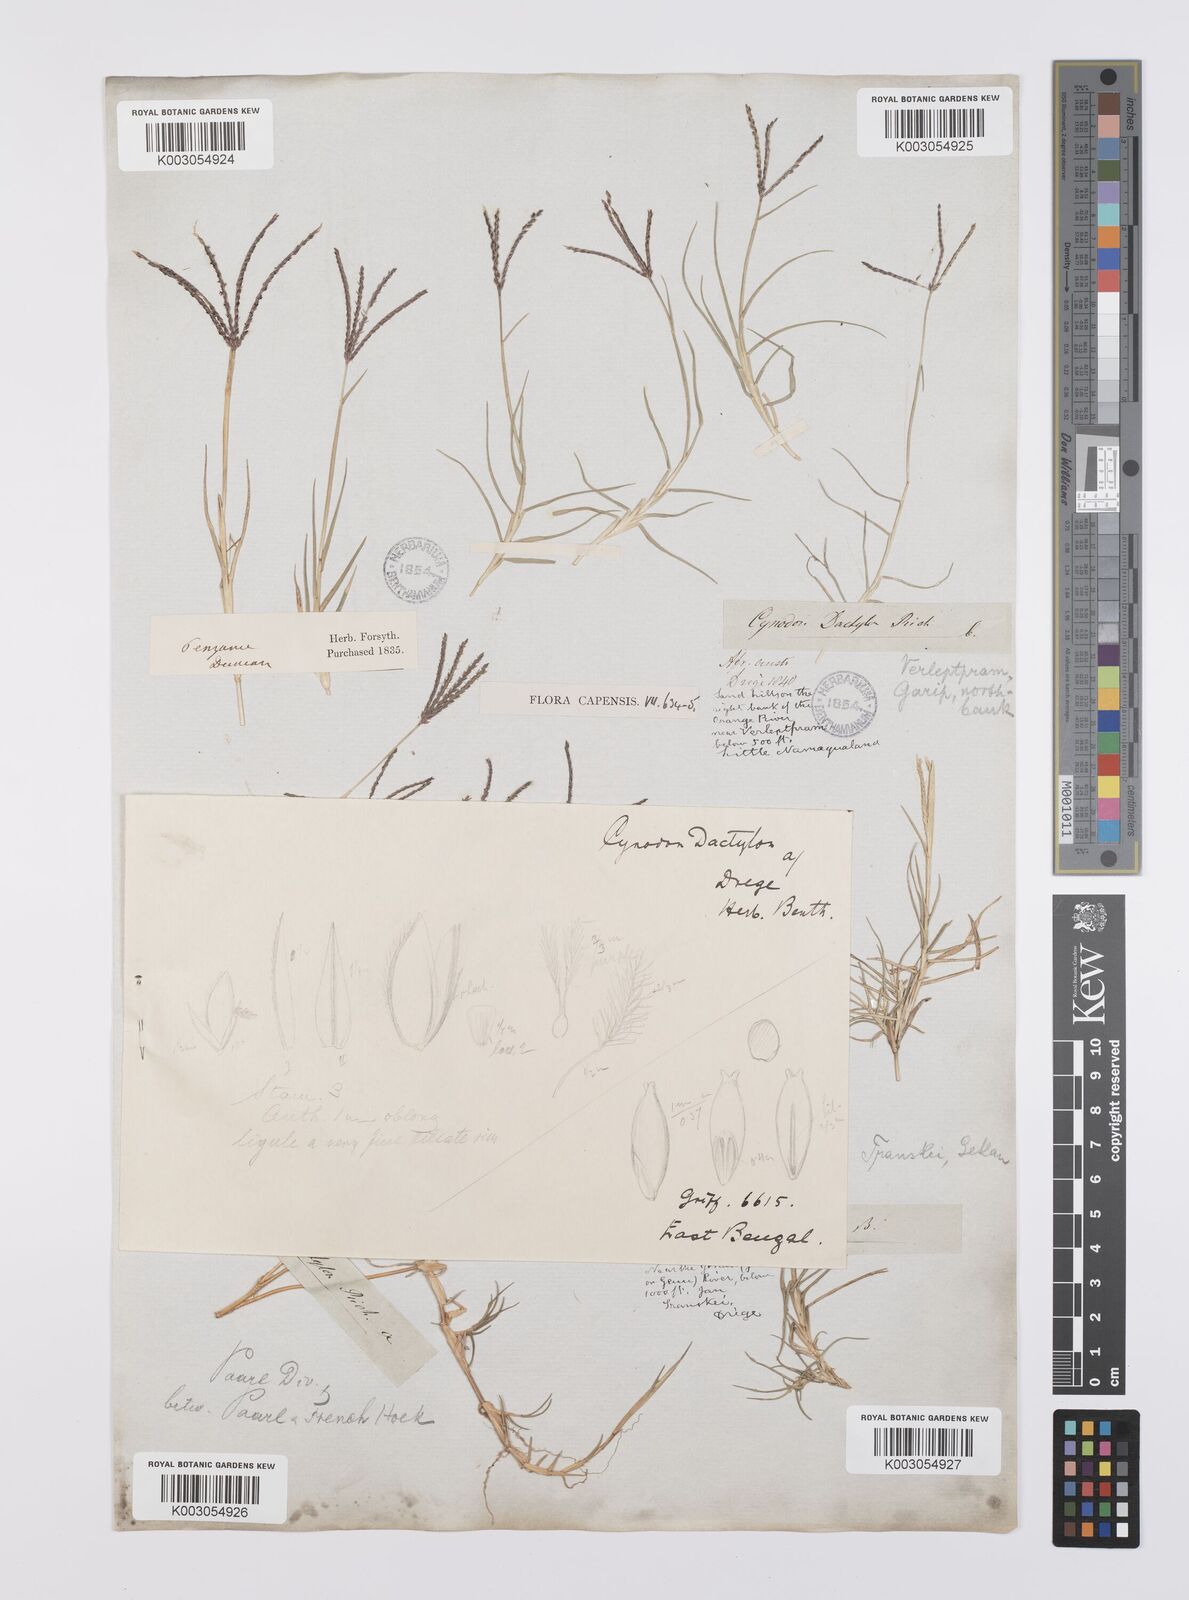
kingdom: Plantae
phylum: Tracheophyta
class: Liliopsida
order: Poales
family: Poaceae
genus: Cynodon
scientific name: Cynodon dactylon
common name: Bermuda grass
